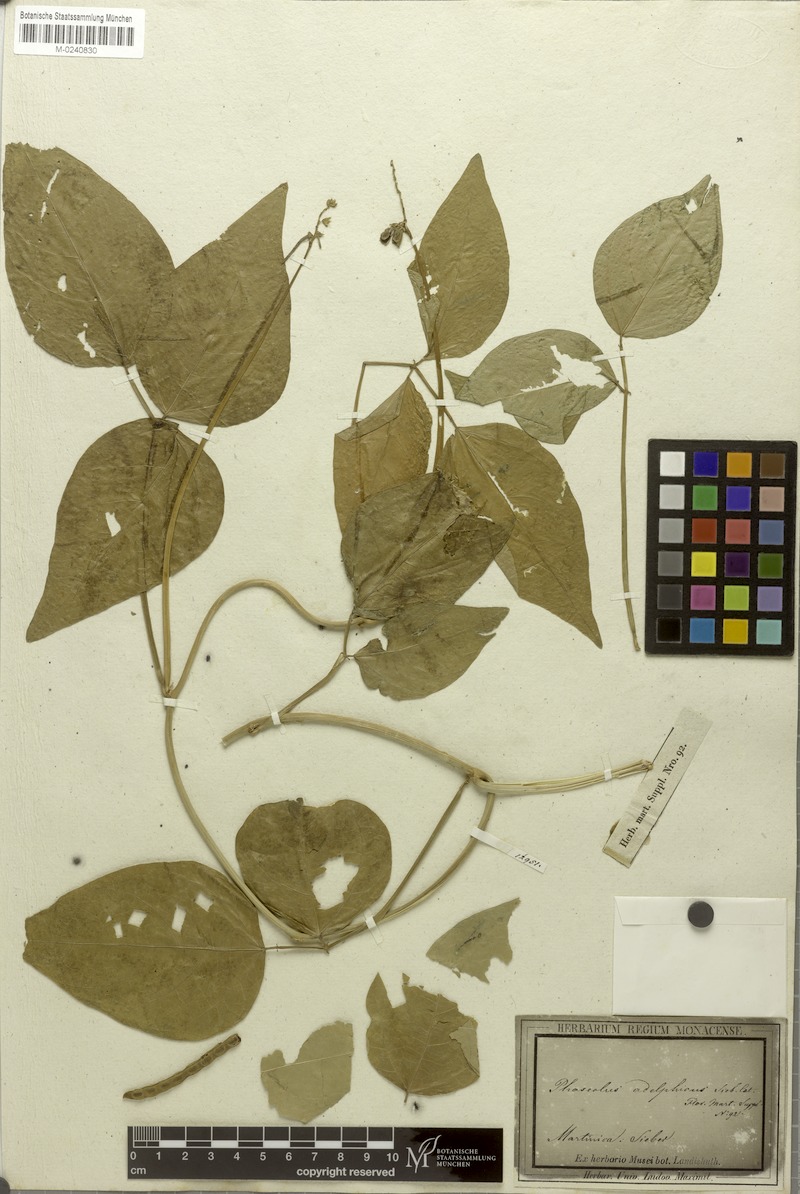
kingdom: Plantae
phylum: Tracheophyta
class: Magnoliopsida
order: Fabales
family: Fabaceae
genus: Phaseolus
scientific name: Phaseolus
